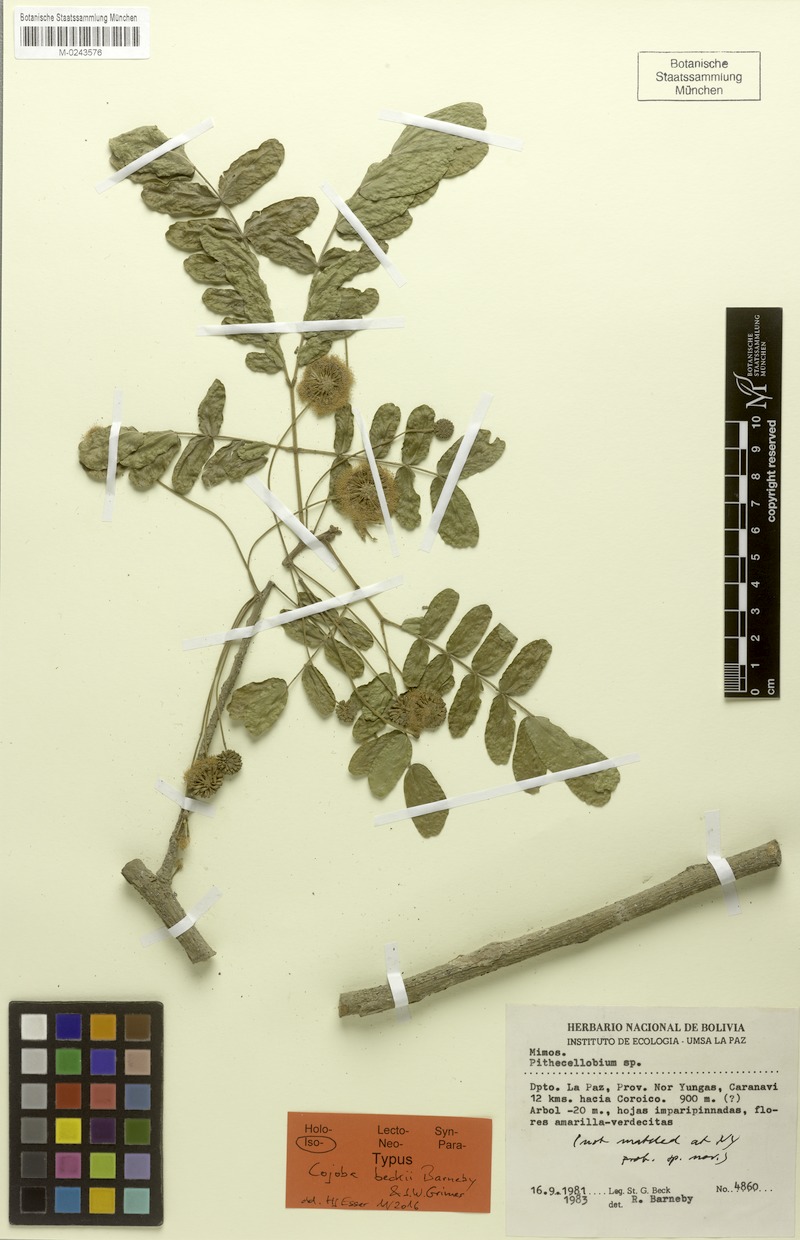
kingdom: Plantae
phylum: Tracheophyta
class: Magnoliopsida
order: Fabales
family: Fabaceae
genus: Cojoba
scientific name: Cojoba beckii
